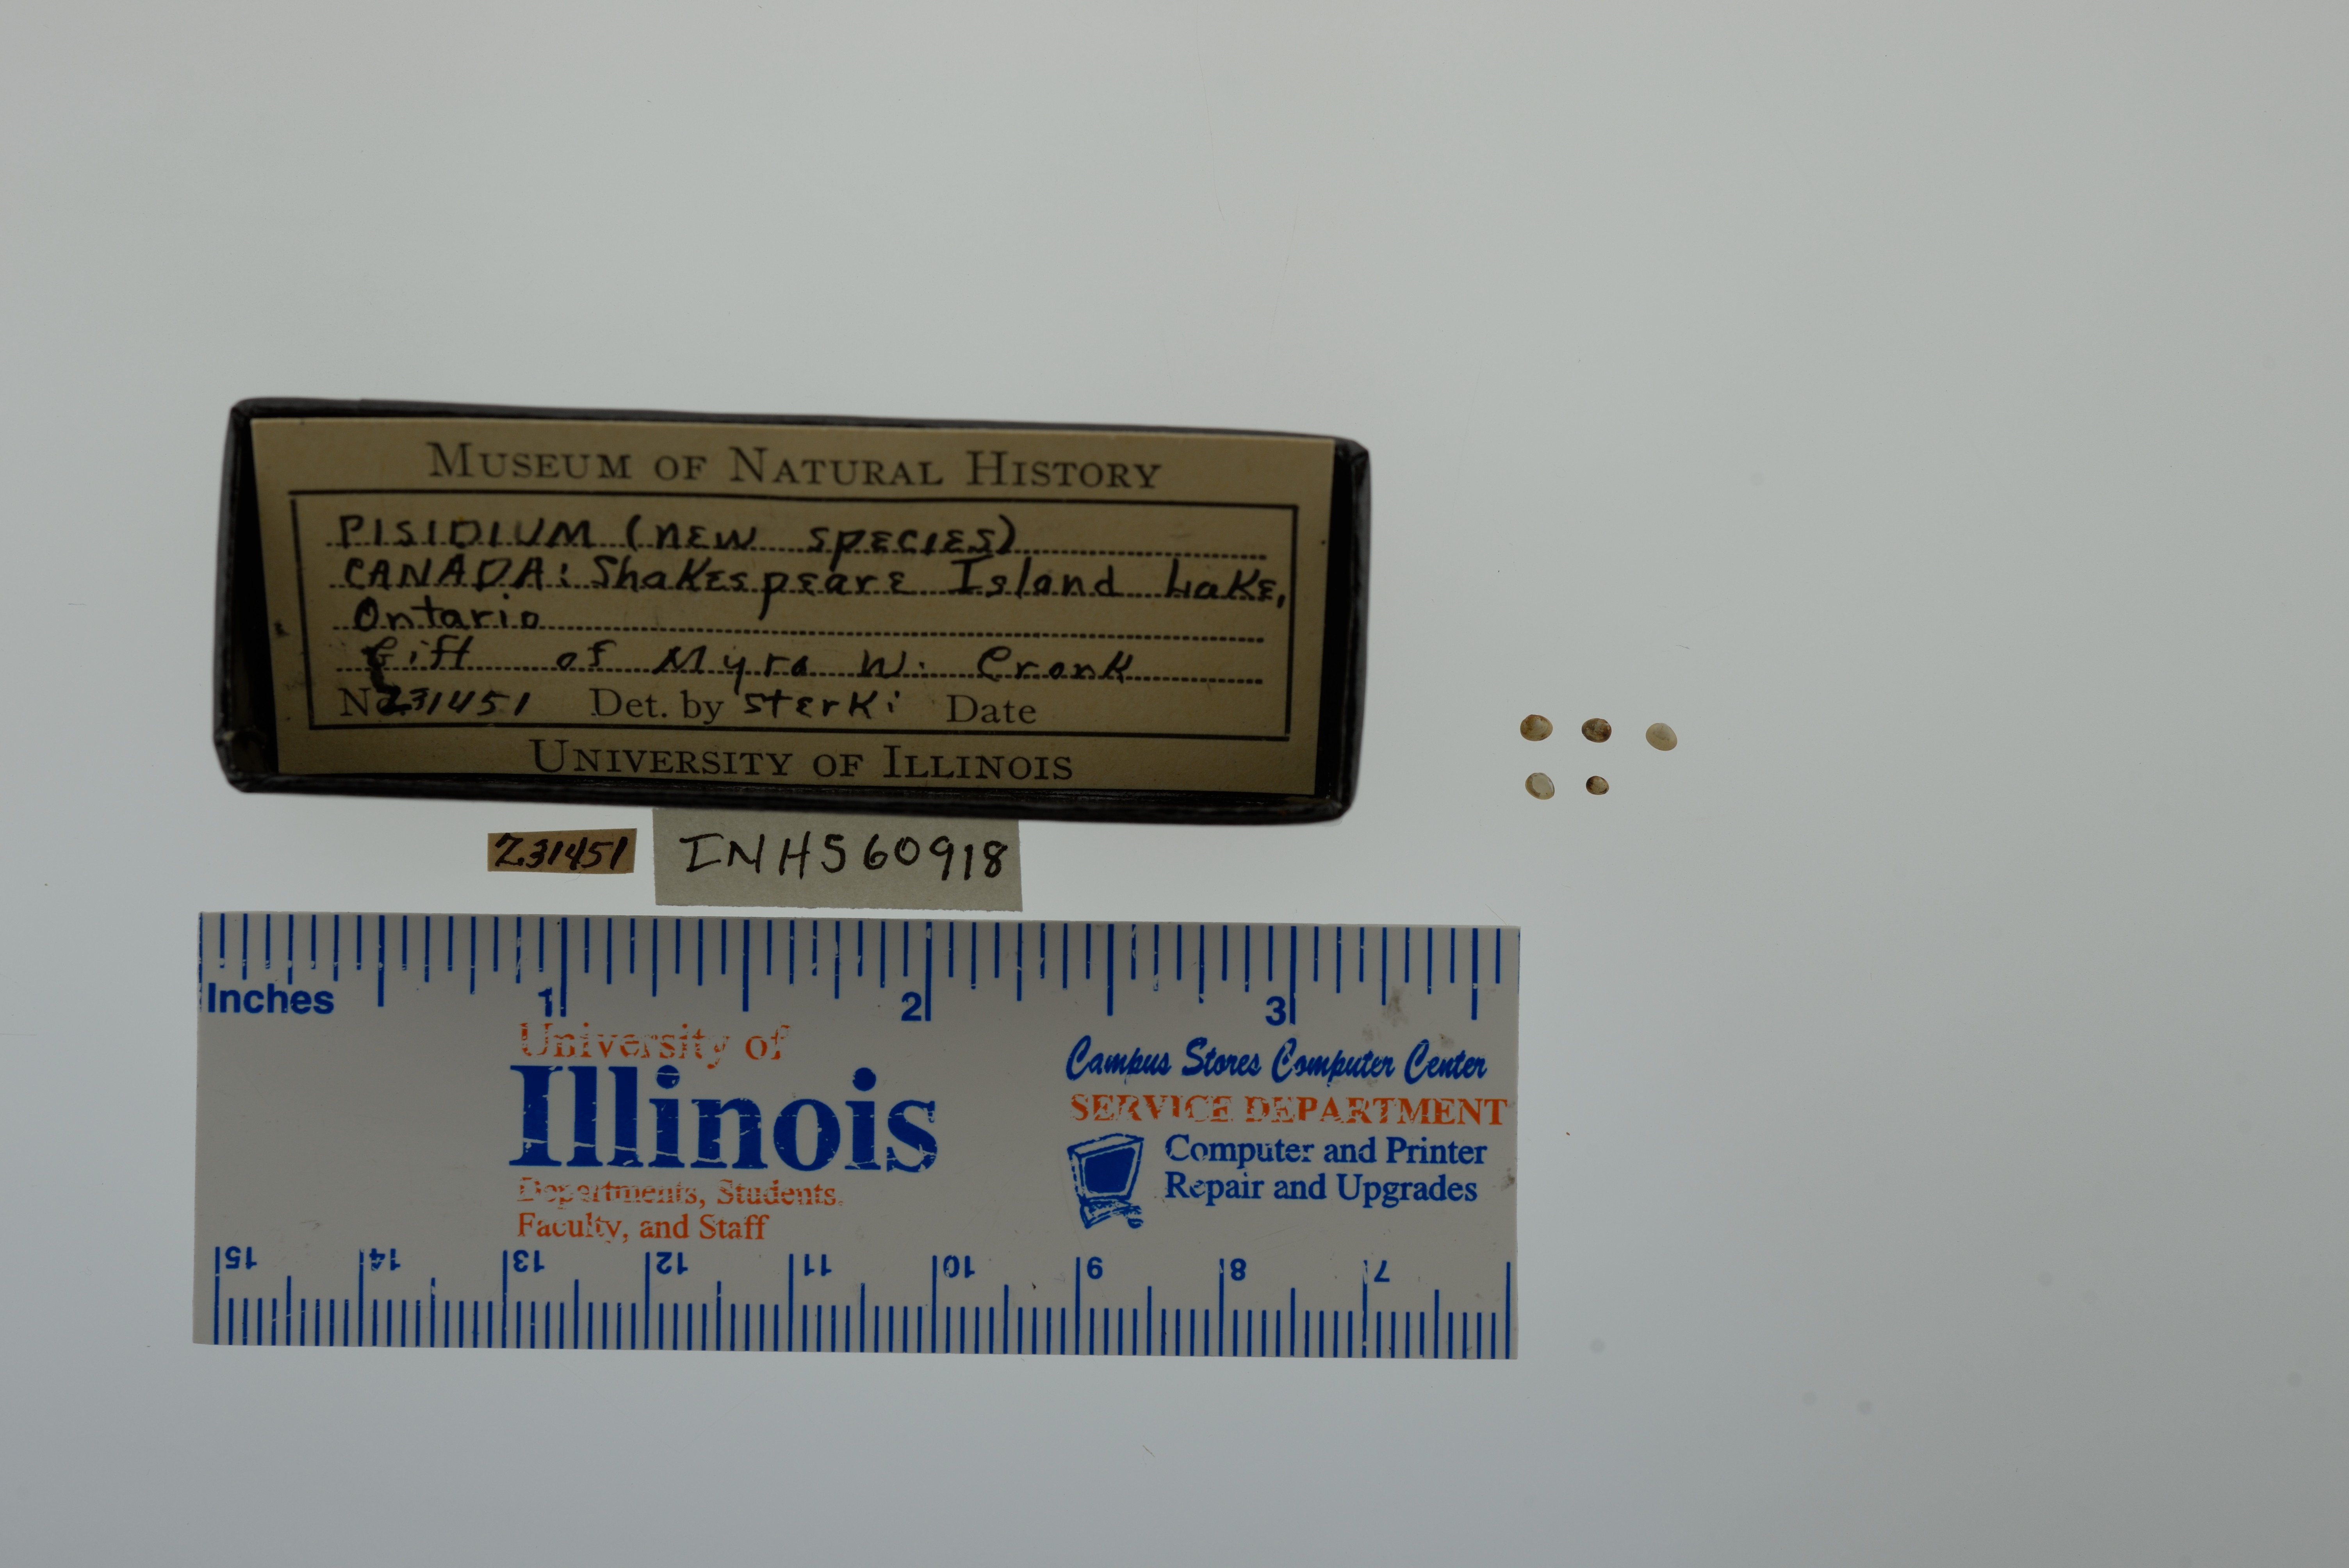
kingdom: Animalia
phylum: Mollusca
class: Bivalvia
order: Sphaeriida
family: Sphaeriidae
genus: Pisidium
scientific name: Pisidium
